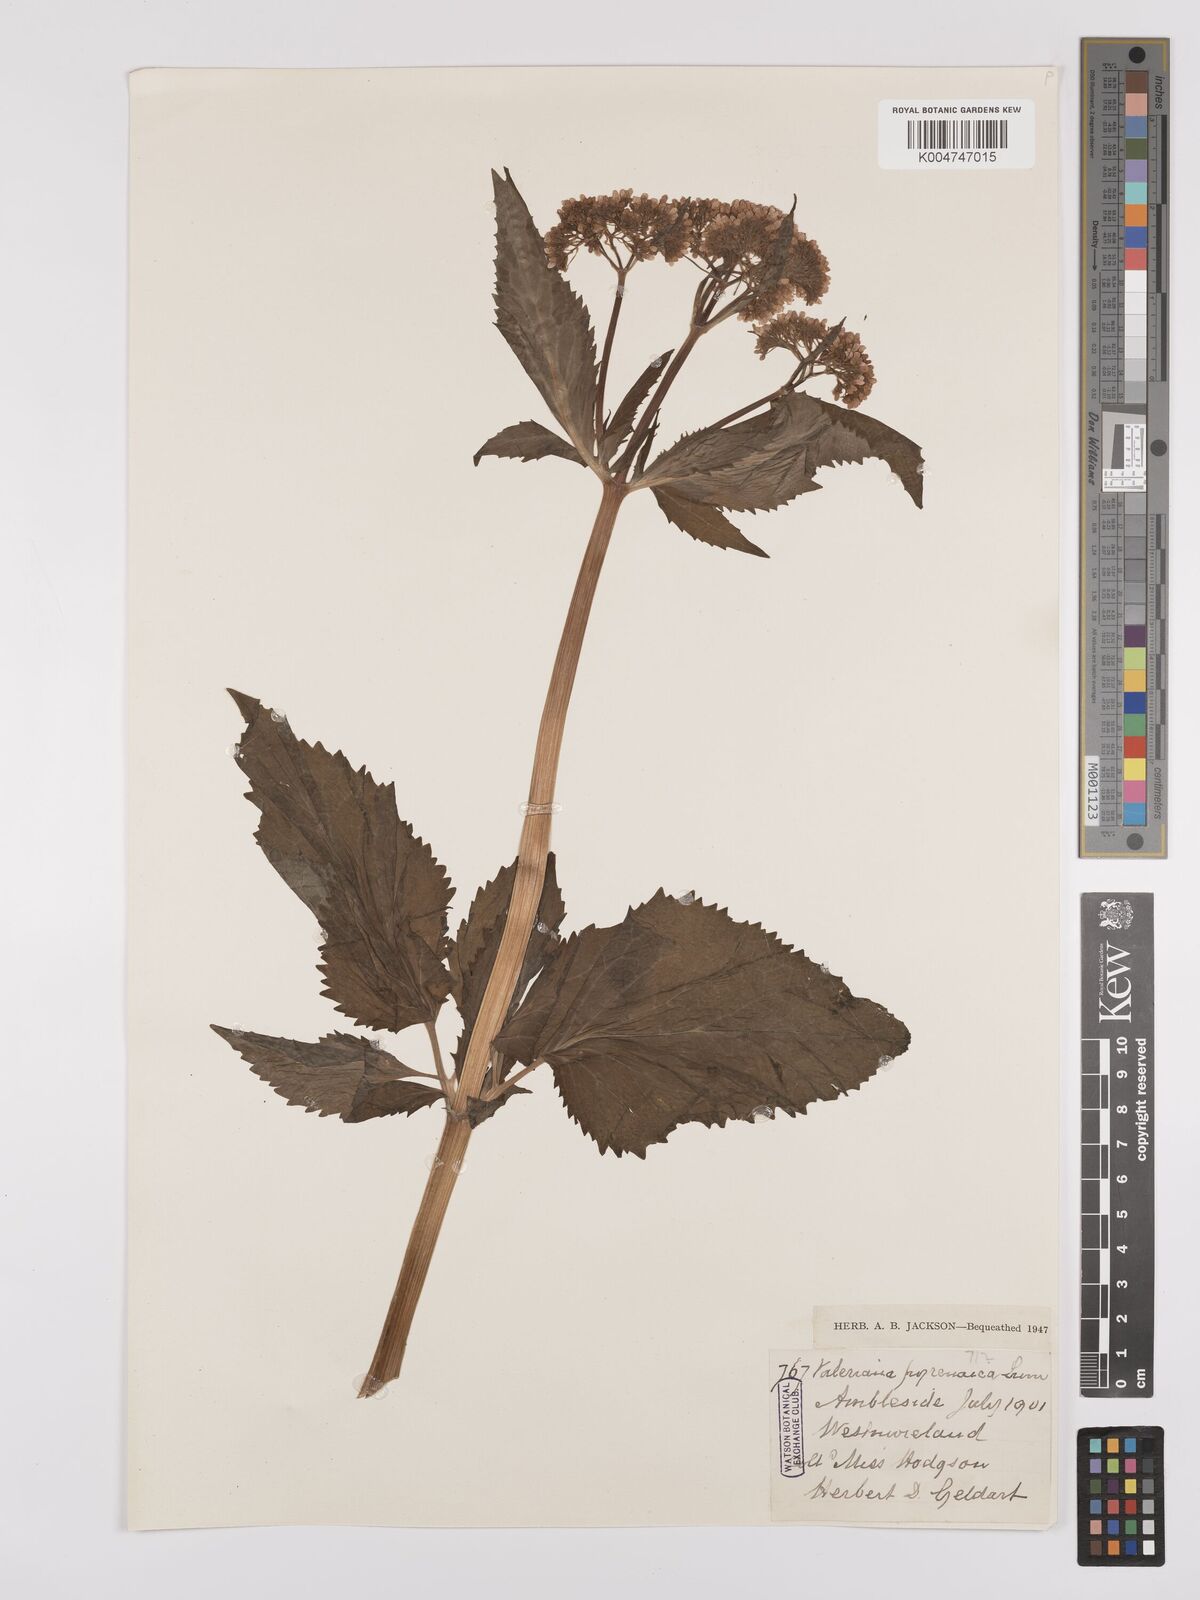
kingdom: Plantae
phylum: Tracheophyta
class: Magnoliopsida
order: Dipsacales
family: Caprifoliaceae
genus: Valeriana
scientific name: Valeriana pyrenaica
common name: Pyrenean valerian
